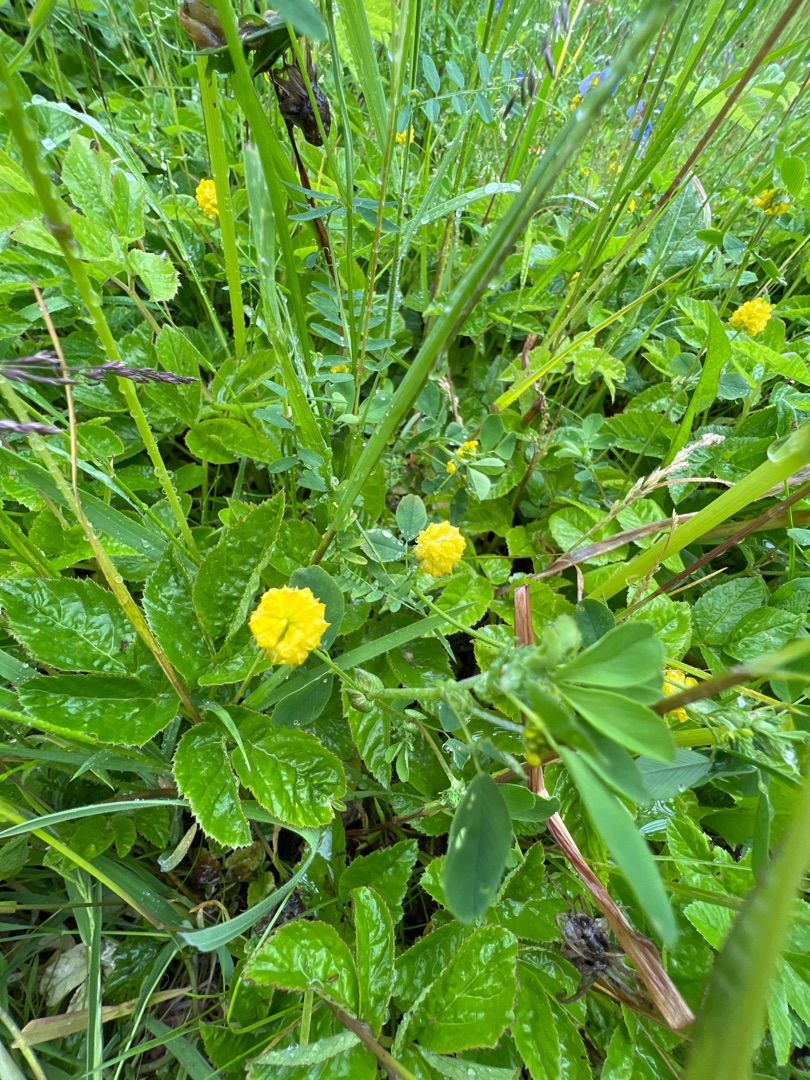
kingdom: Plantae
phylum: Tracheophyta
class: Magnoliopsida
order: Fabales
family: Fabaceae
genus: Trifolium
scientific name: Trifolium campestre
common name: Gul kløver
